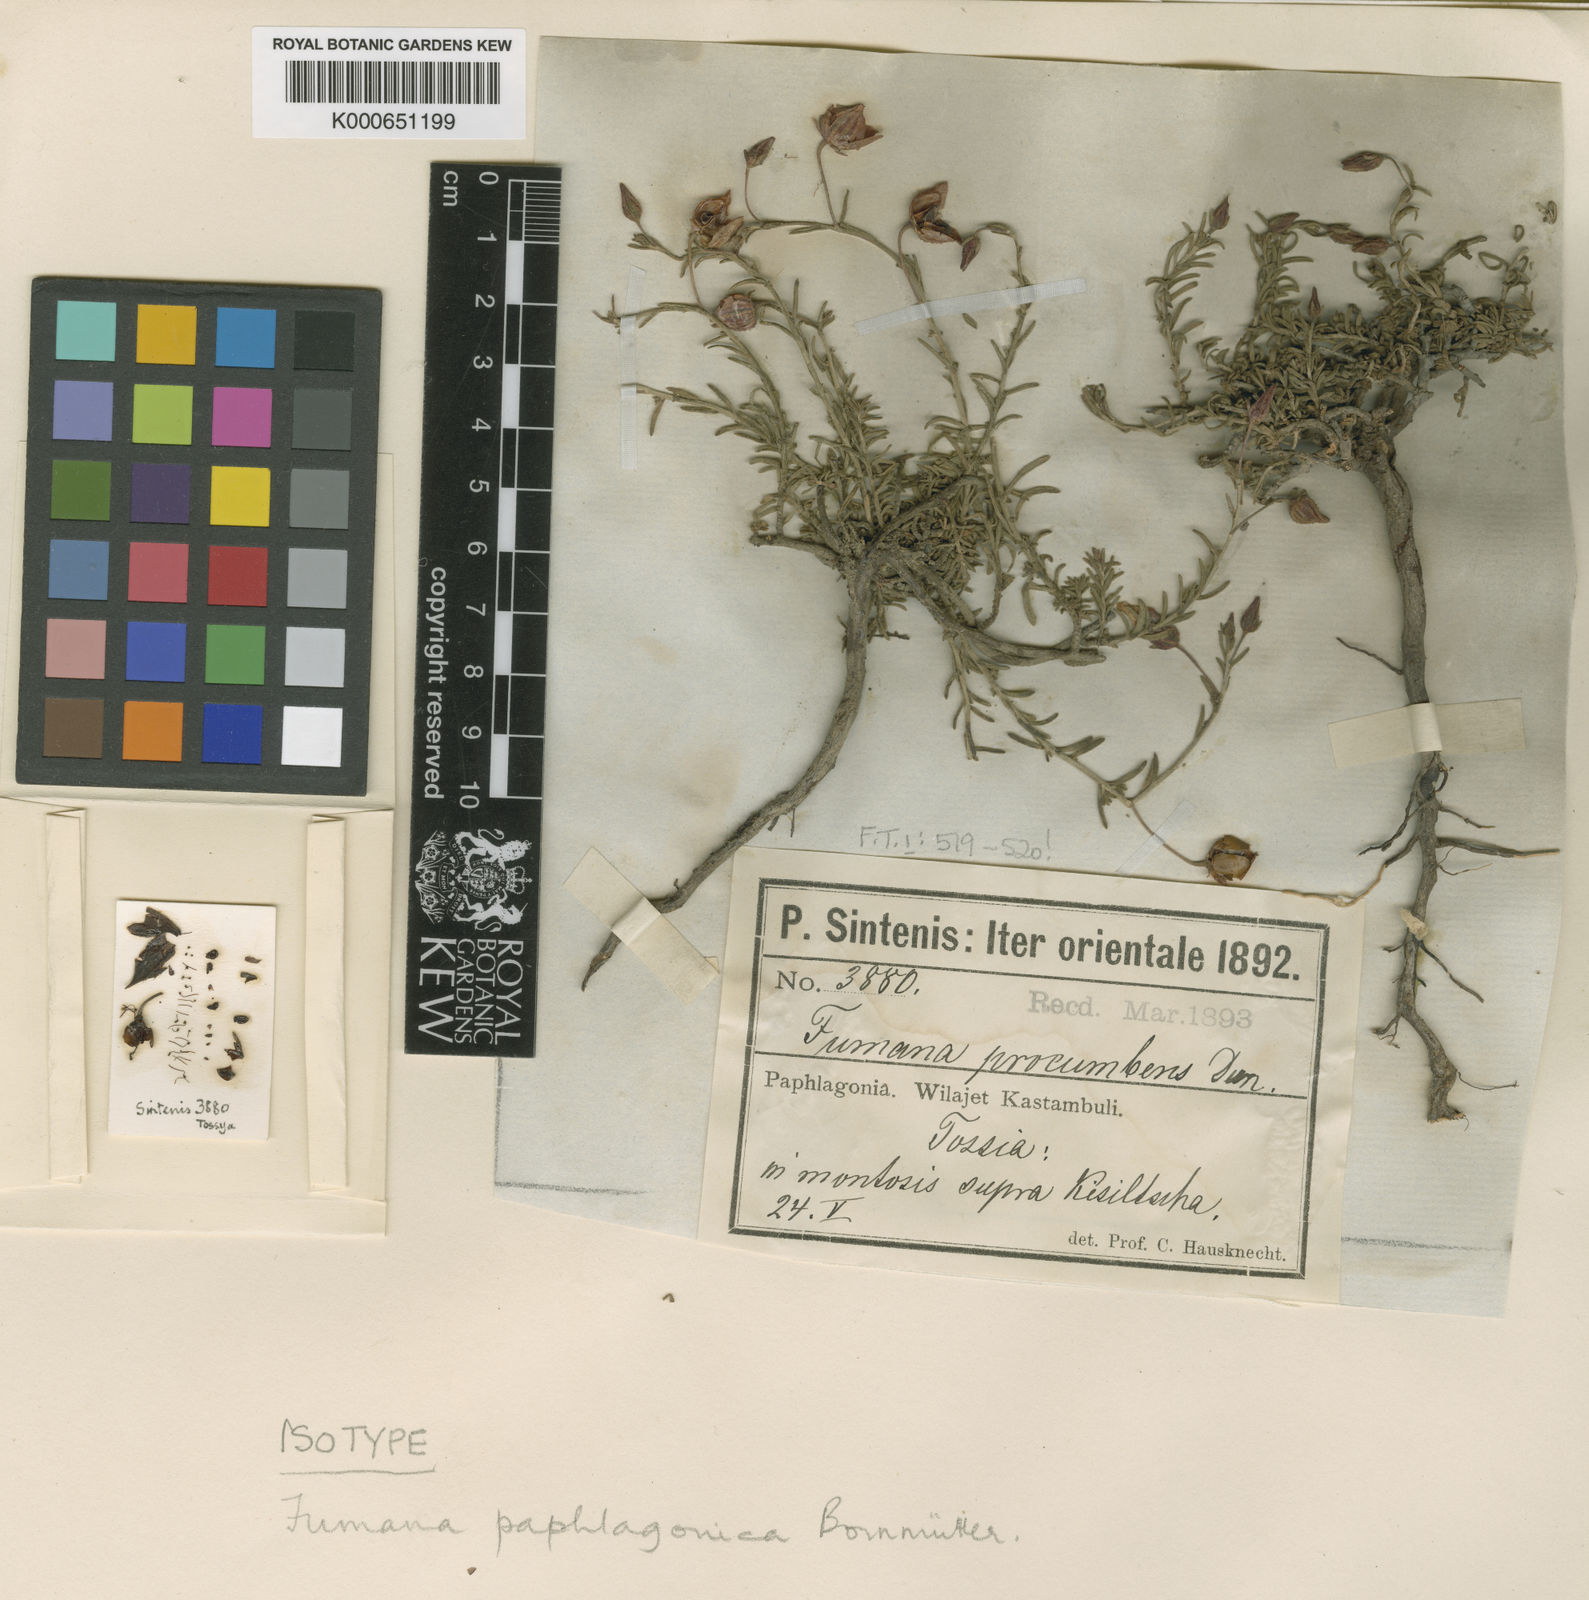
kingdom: Plantae
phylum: Tracheophyta
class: Magnoliopsida
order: Malvales
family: Cistaceae
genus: Fumana
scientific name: Fumana paphlagonica
